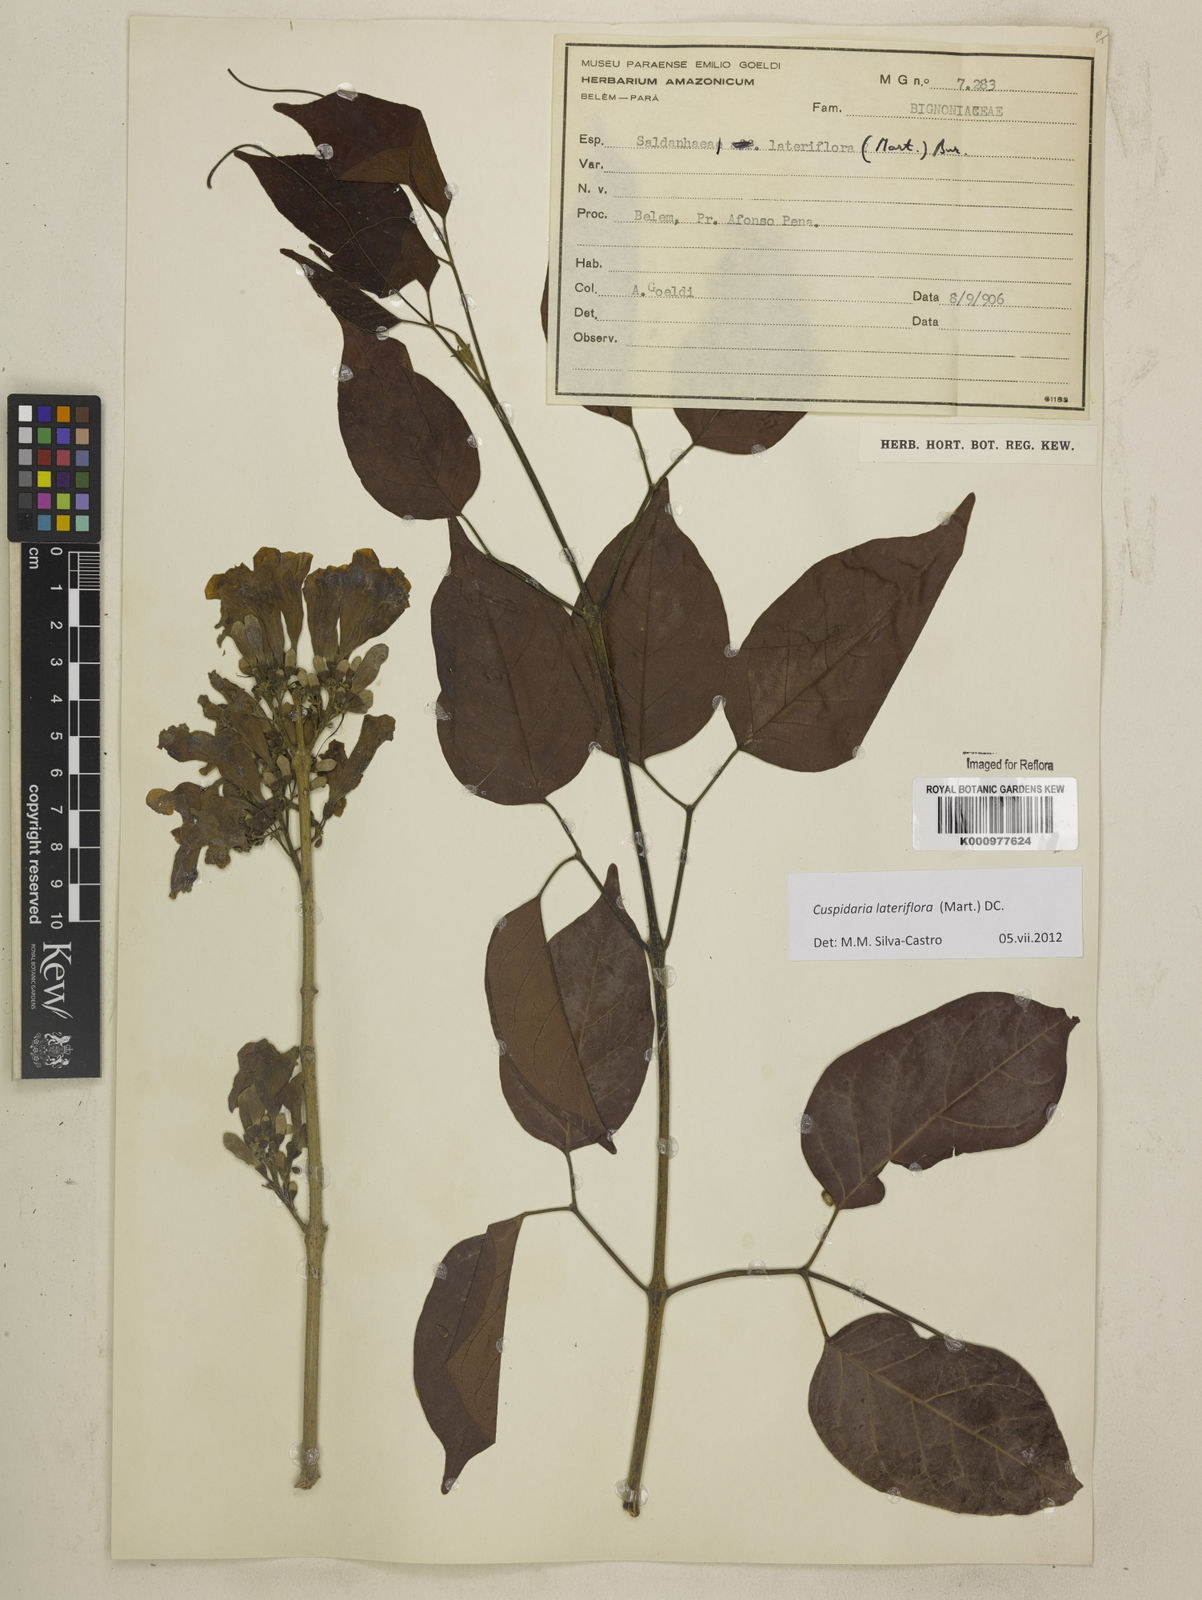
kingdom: Plantae
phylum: Tracheophyta
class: Magnoliopsida
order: Lamiales
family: Bignoniaceae
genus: Cuspidaria
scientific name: Cuspidaria lateriflora
